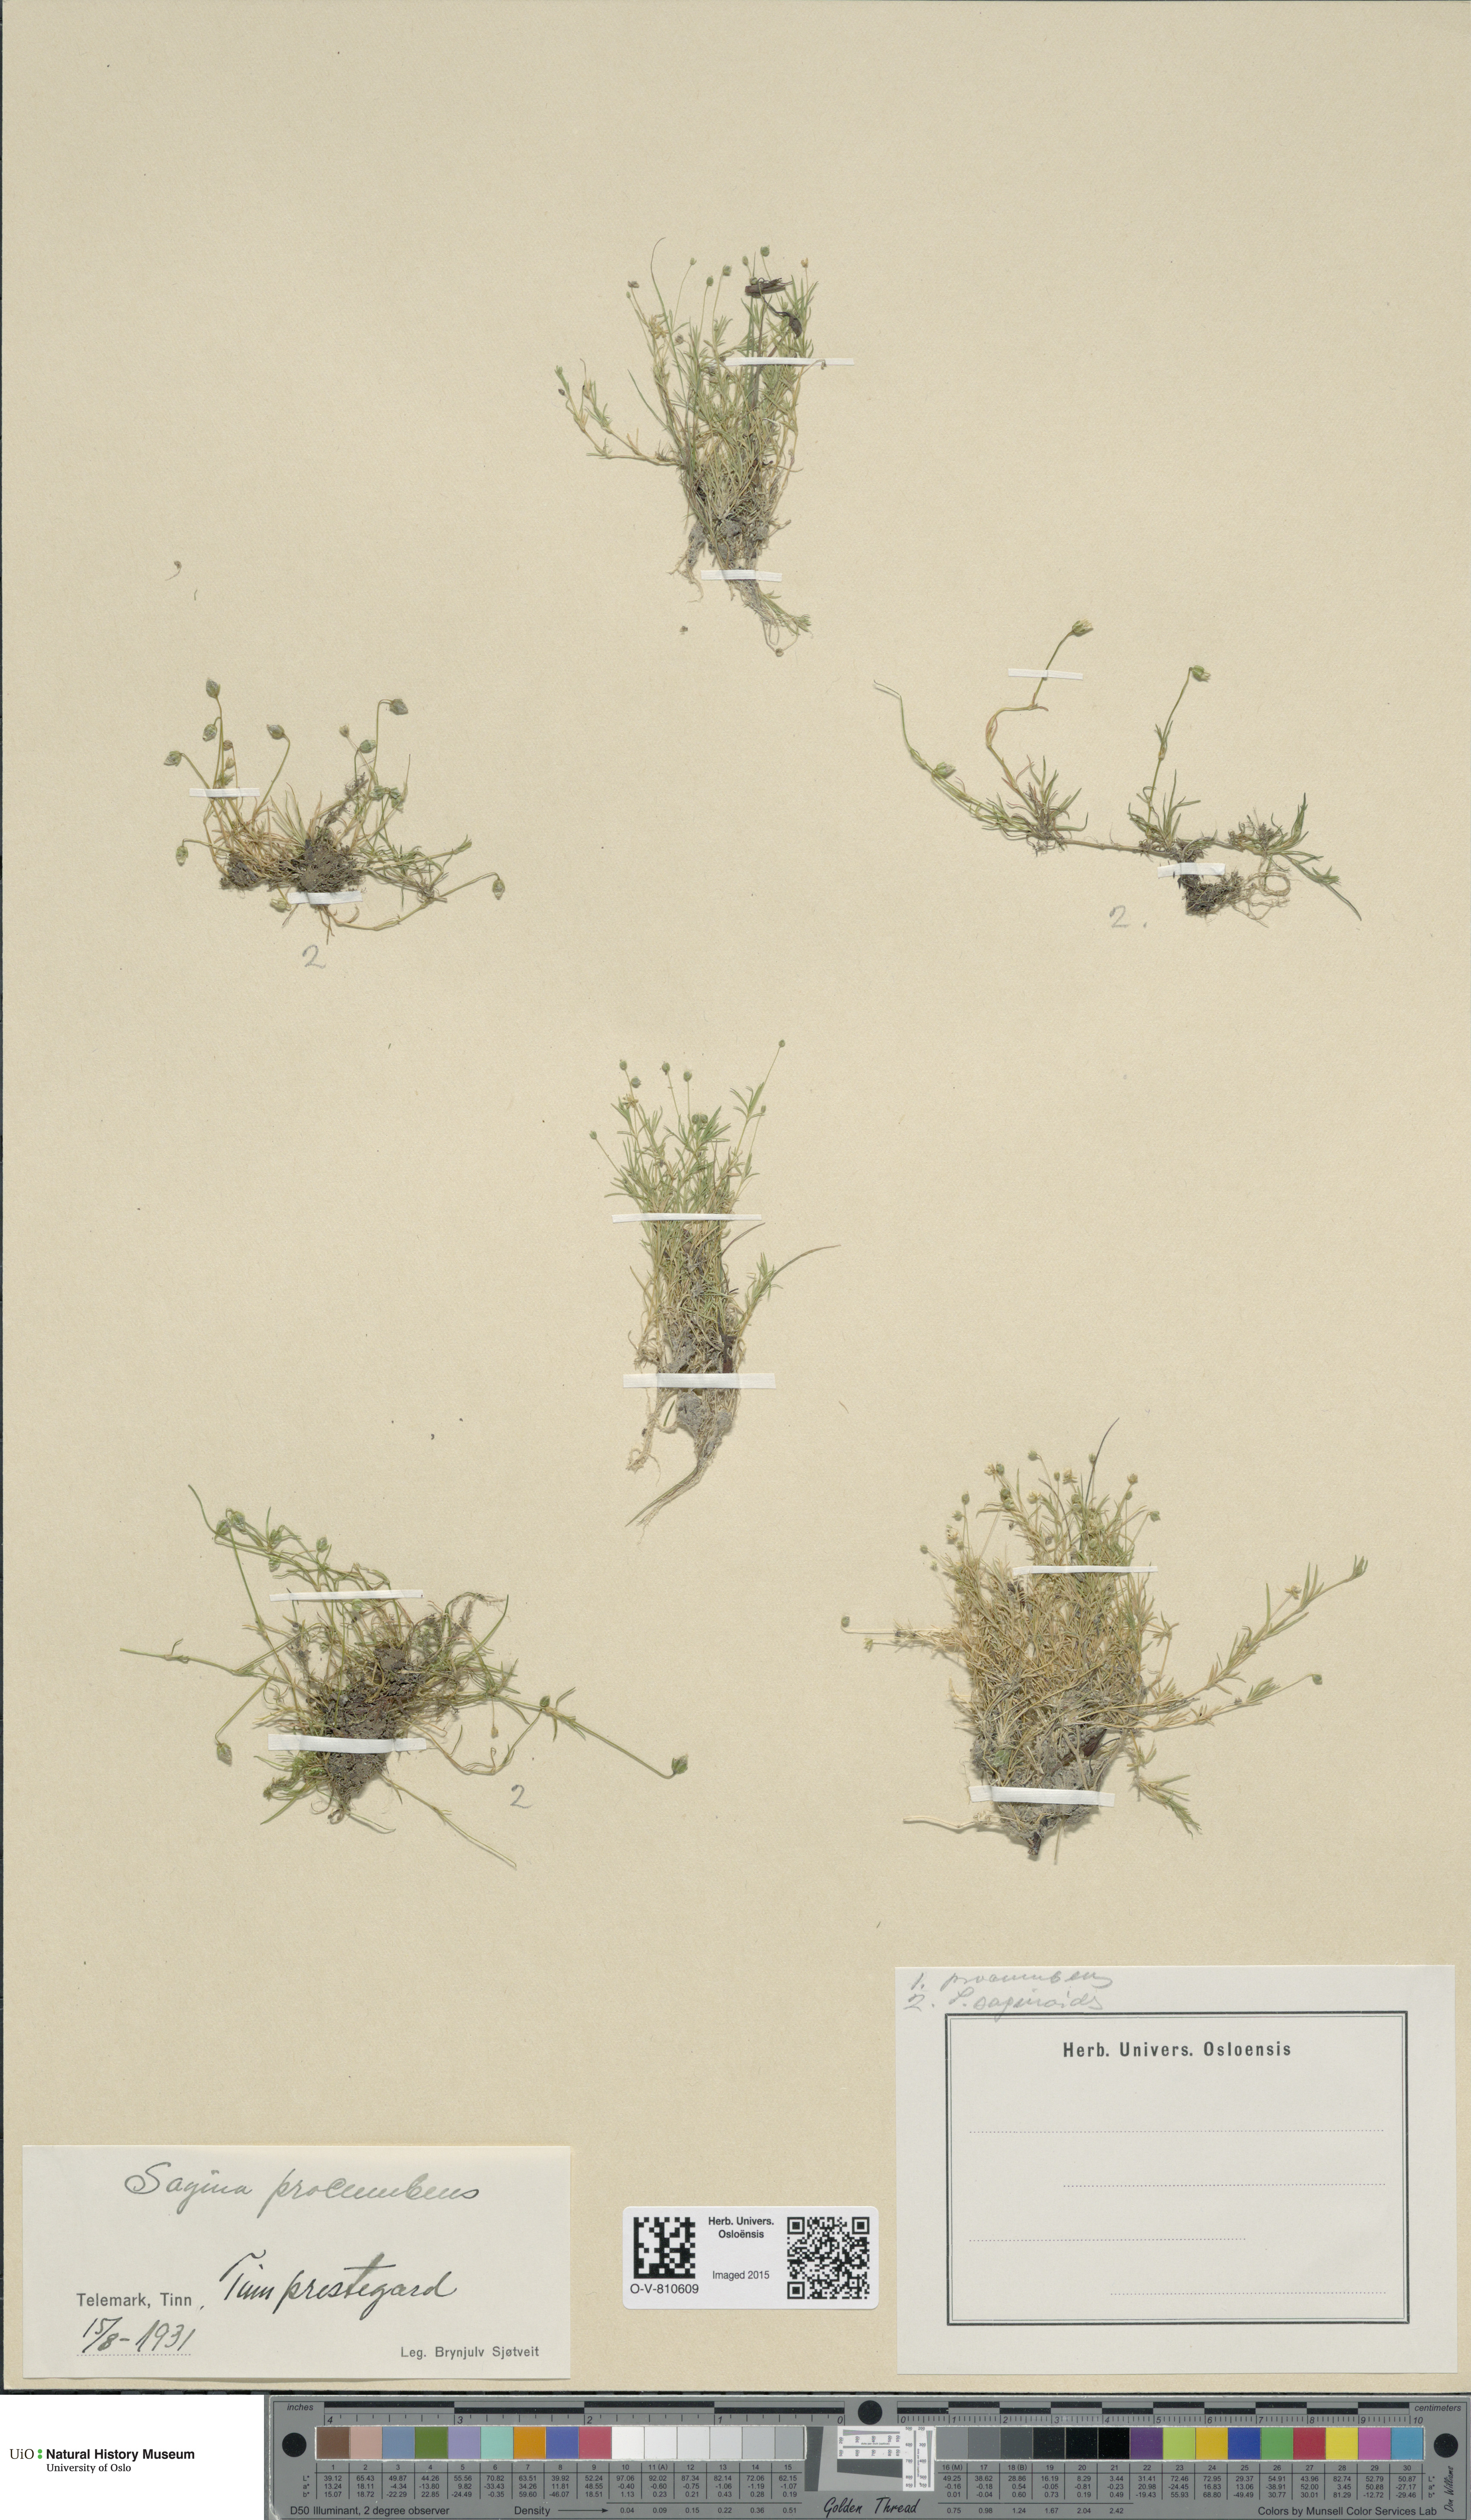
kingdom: Plantae
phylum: Tracheophyta
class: Magnoliopsida
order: Caryophyllales
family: Caryophyllaceae
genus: Sagina
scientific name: Sagina procumbens
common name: Procumbent pearlwort
